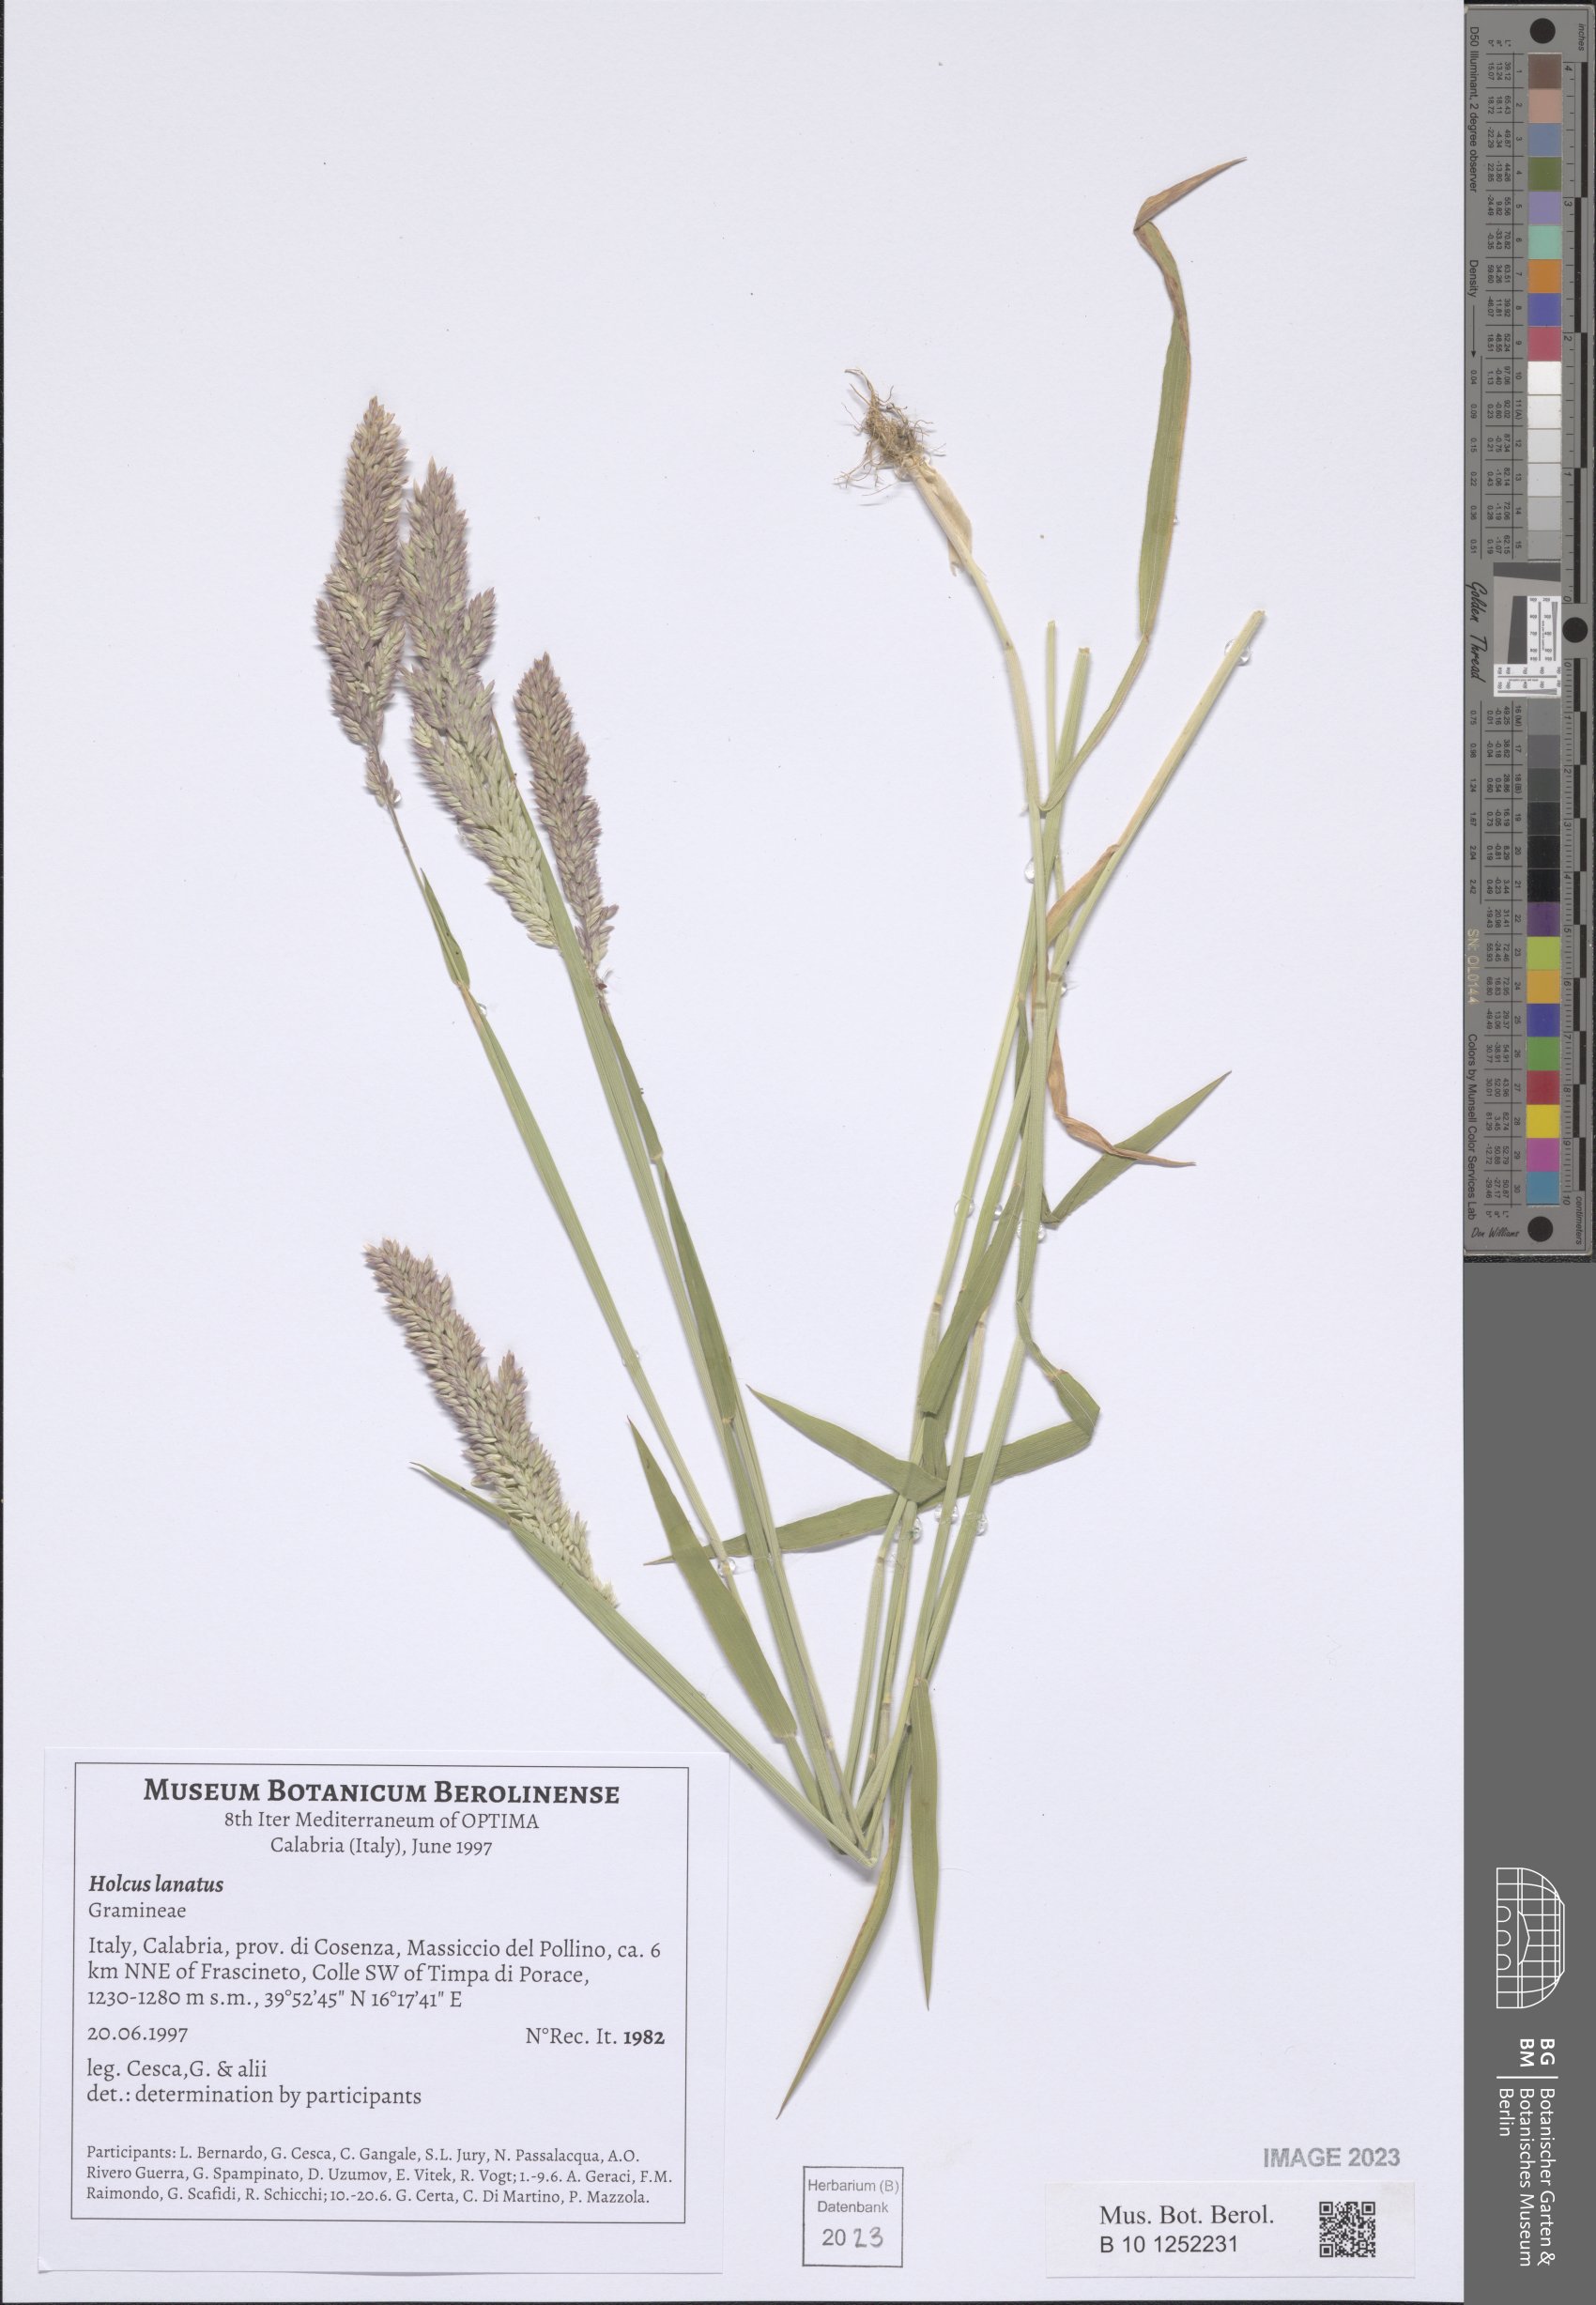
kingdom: Plantae
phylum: Tracheophyta
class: Liliopsida
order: Poales
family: Poaceae
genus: Holcus
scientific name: Holcus lanatus
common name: Yorkshire-fog
